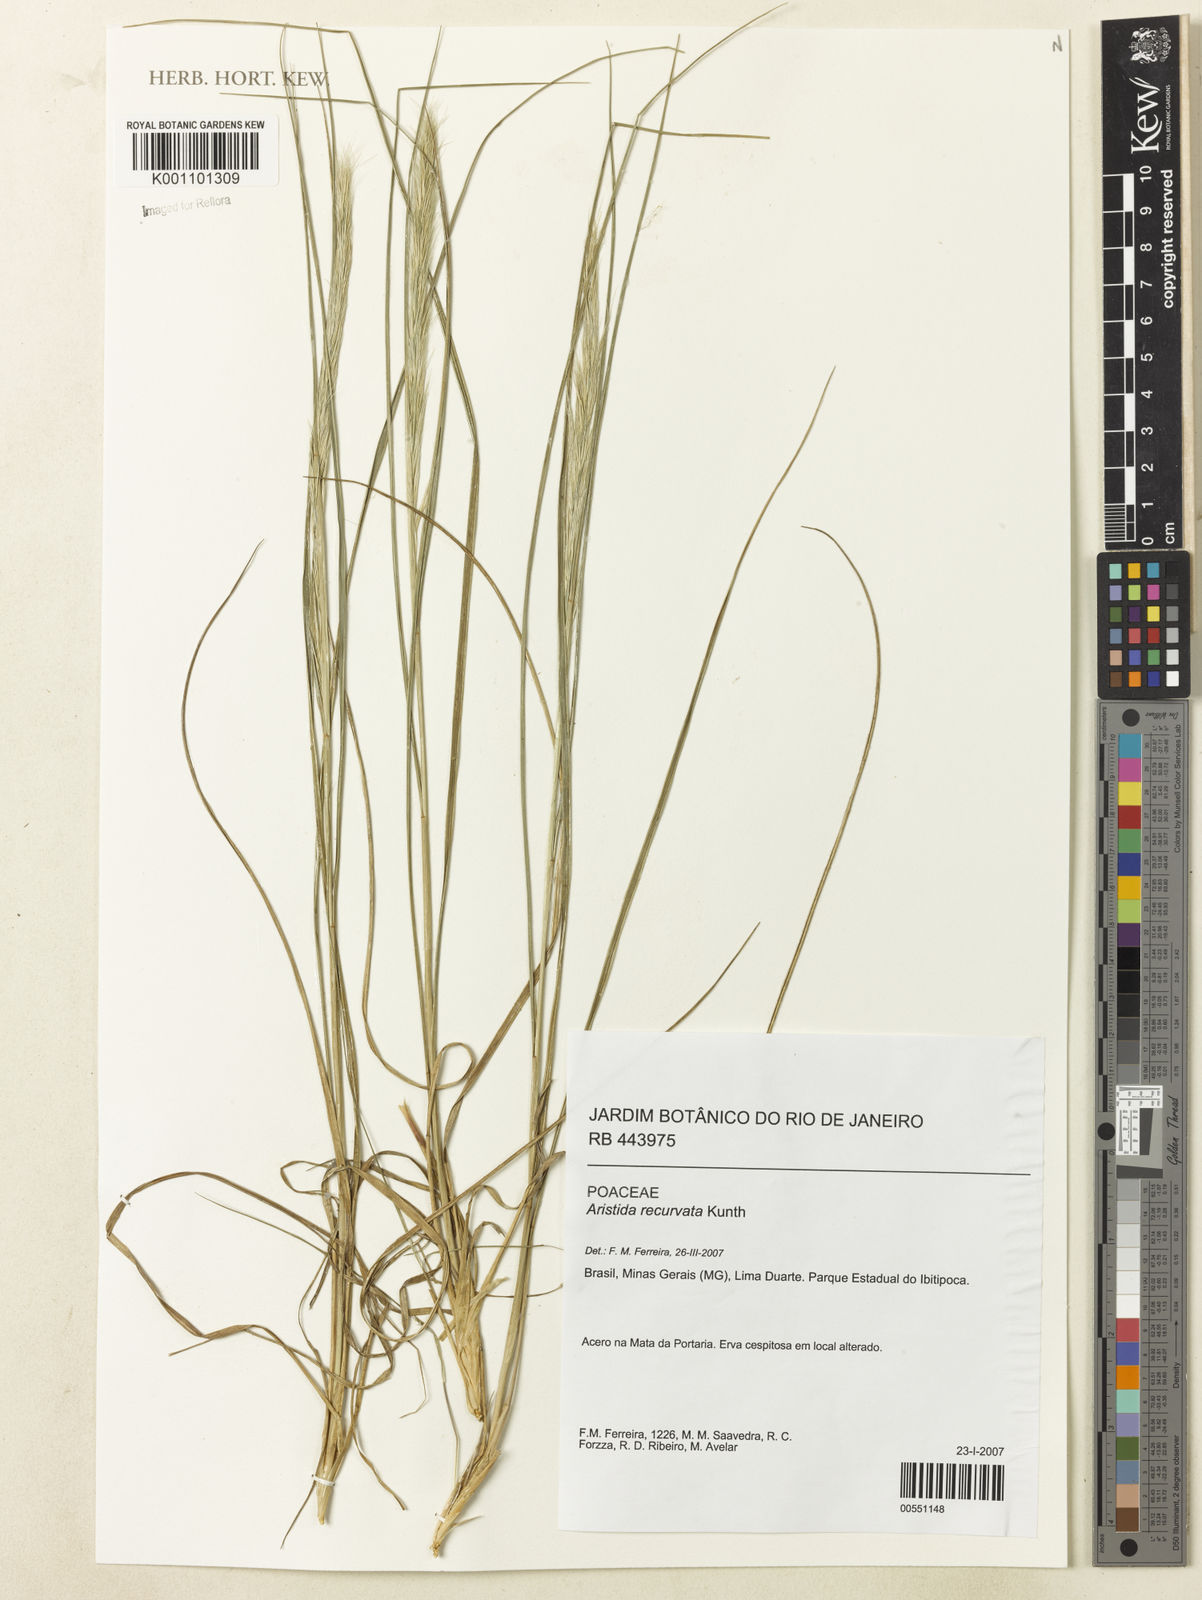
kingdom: Plantae
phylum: Tracheophyta
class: Liliopsida
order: Poales
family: Poaceae
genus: Aristida
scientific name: Aristida recurvata
